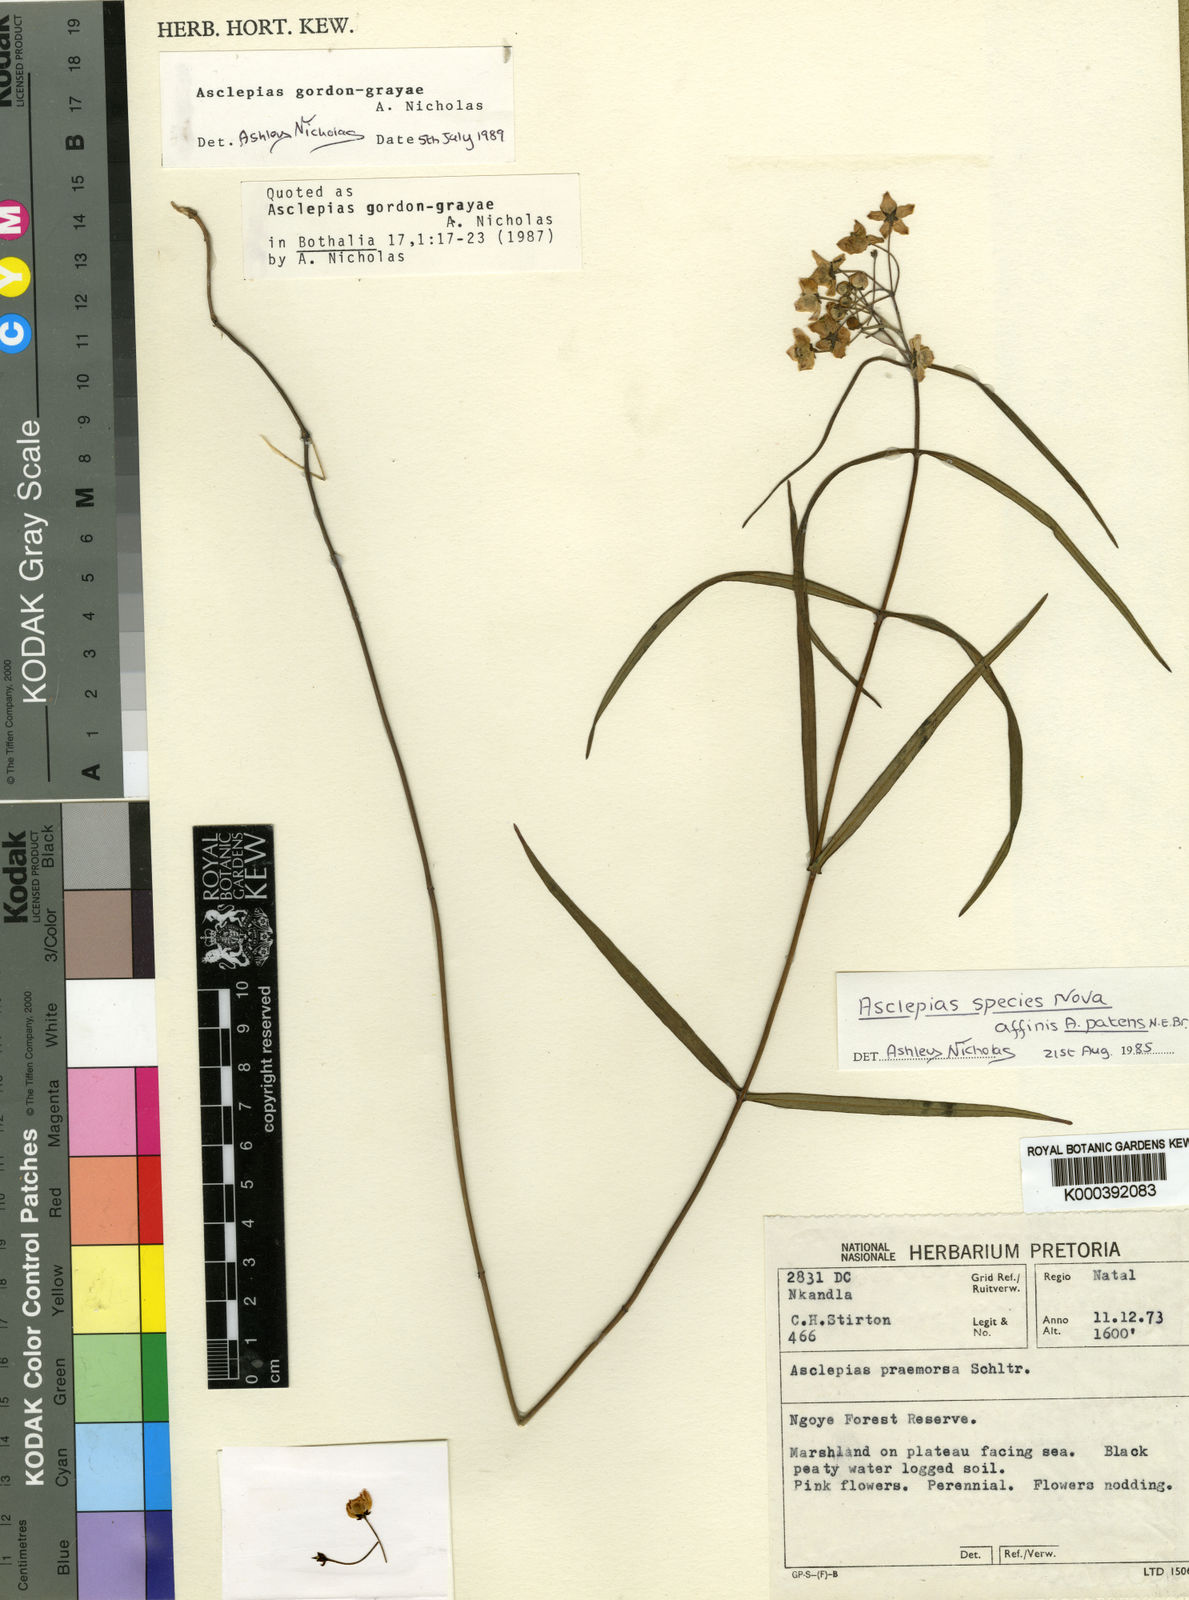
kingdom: Plantae
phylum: Tracheophyta
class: Magnoliopsida
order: Gentianales
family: Apocynaceae
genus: Asclepias
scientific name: Asclepias gordon-grayae
